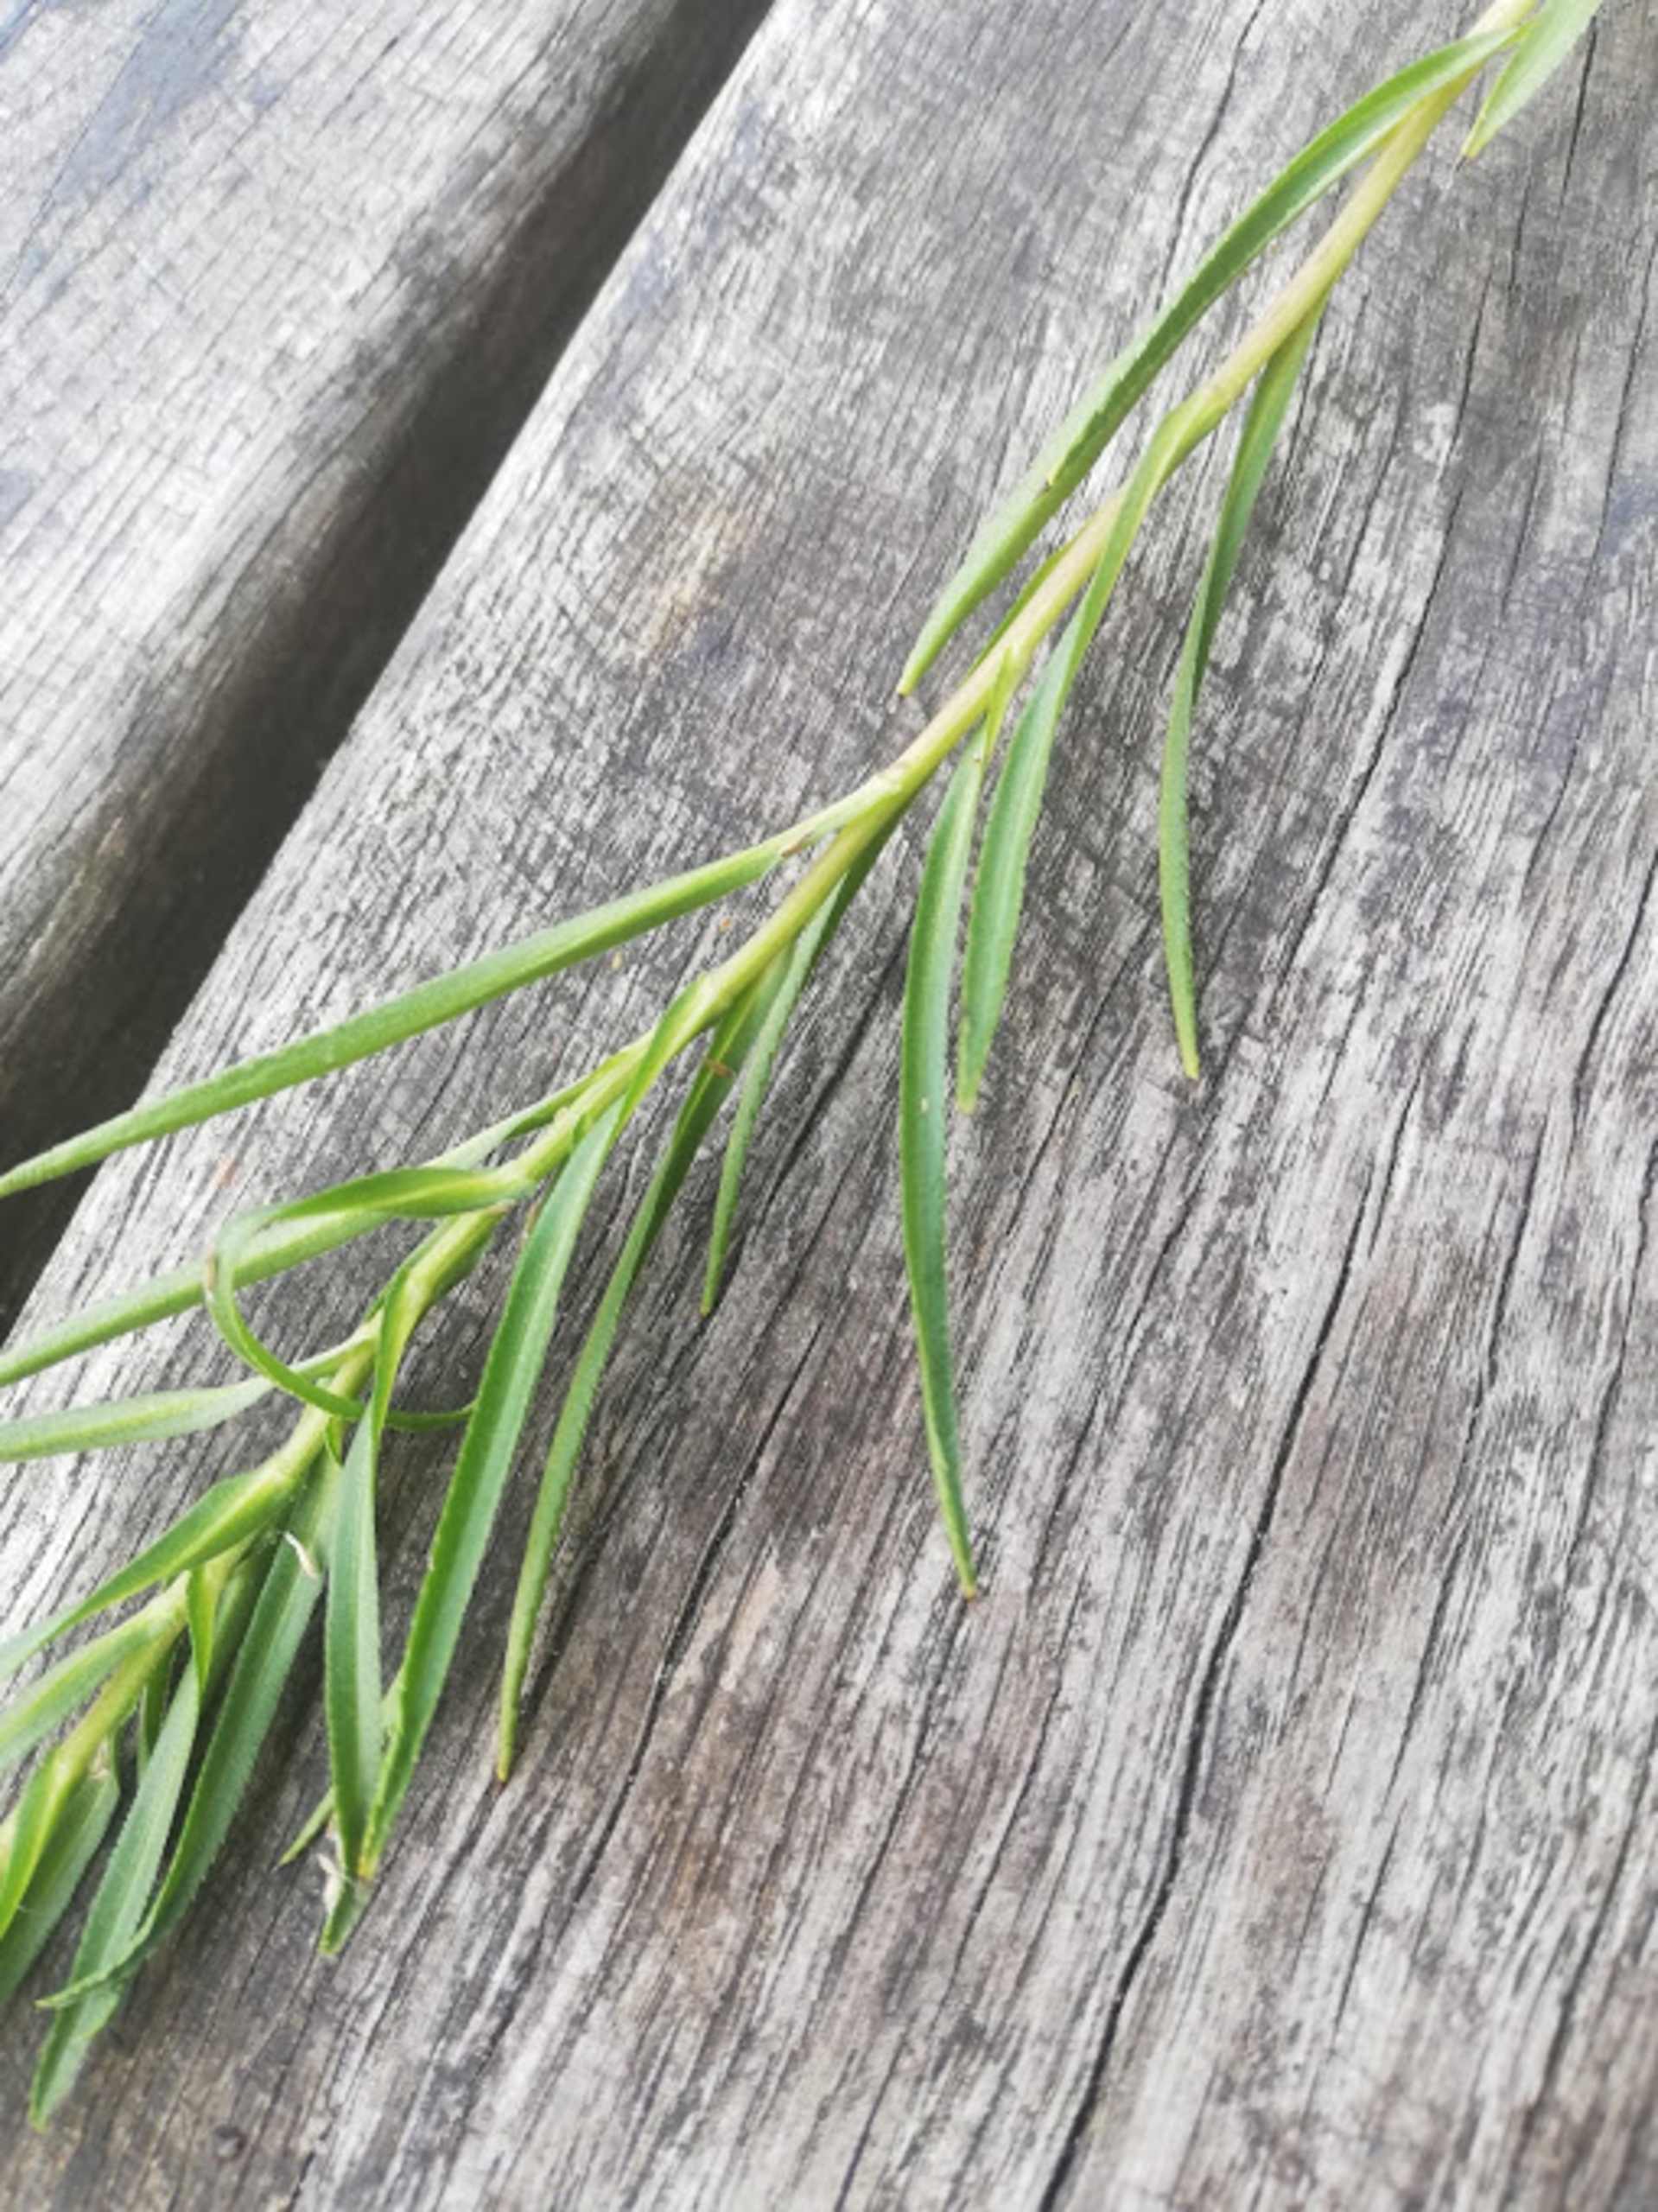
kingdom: Plantae
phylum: Tracheophyta
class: Magnoliopsida
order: Asterales
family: Asteraceae
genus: Achillea
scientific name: Achillea ptarmica
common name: Nyse-røllike
